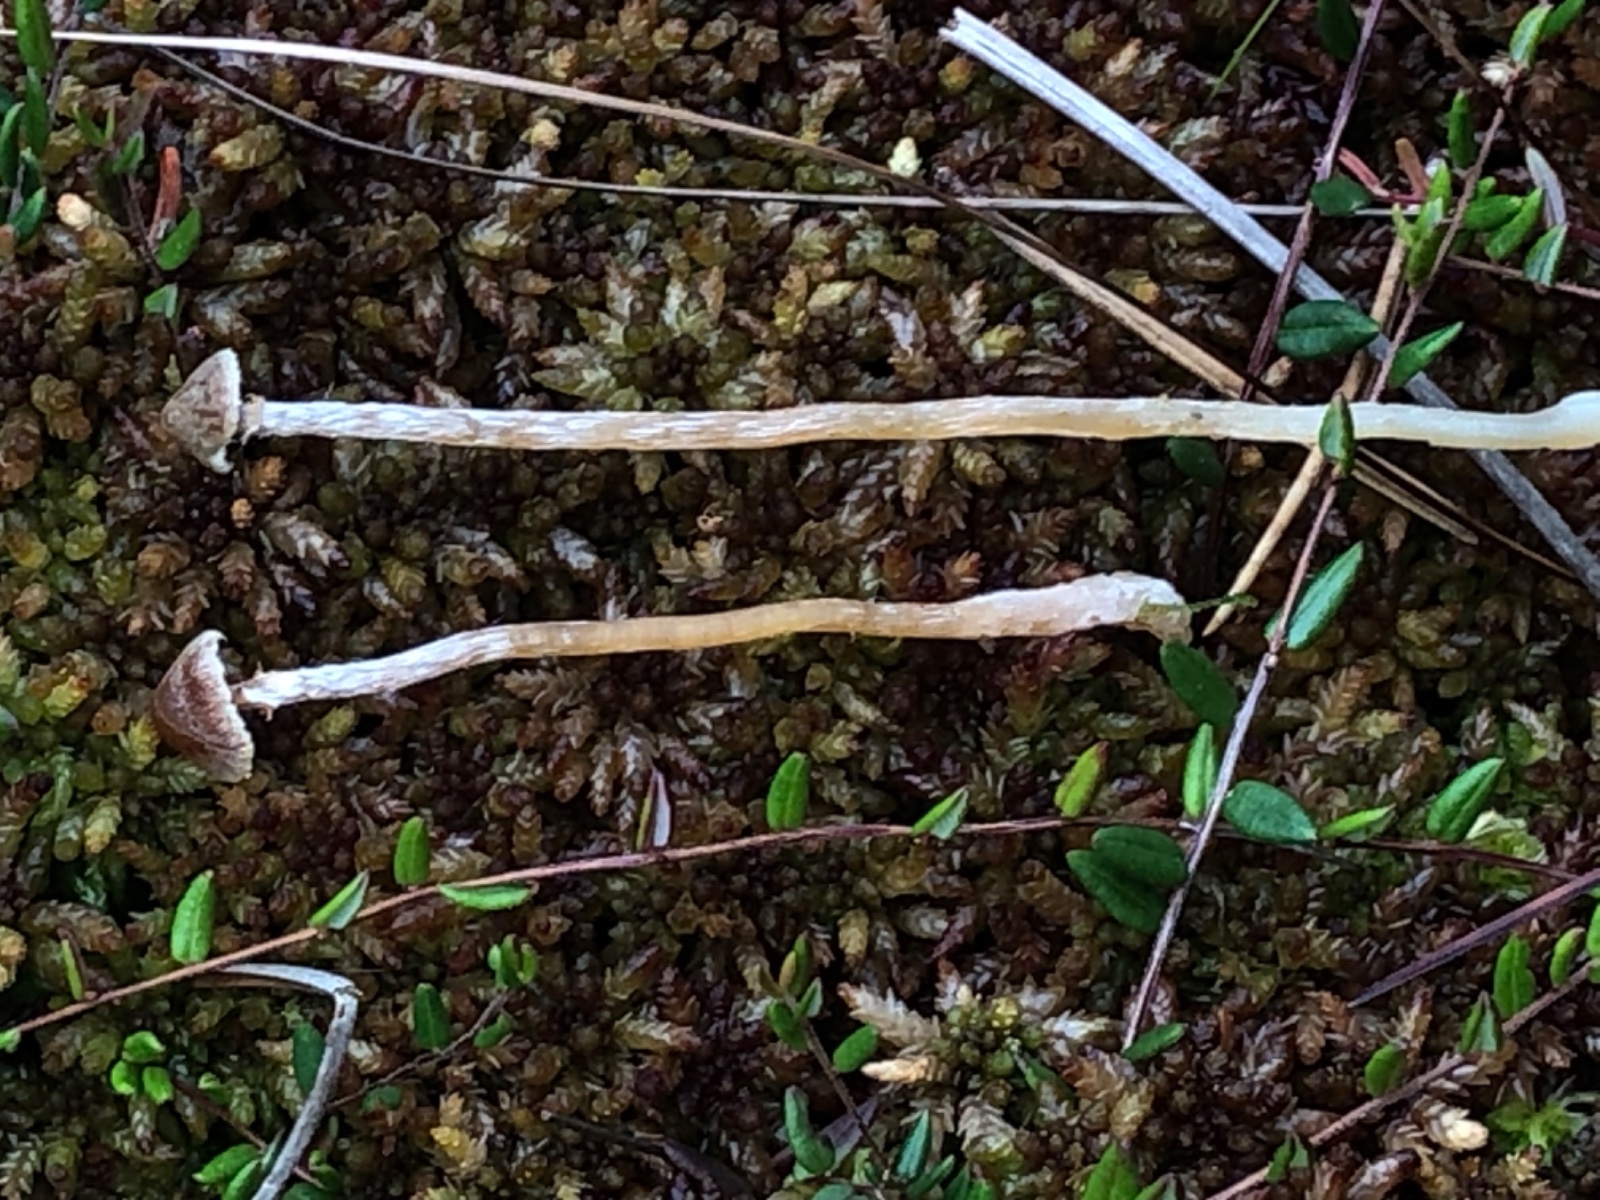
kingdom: Fungi
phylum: Basidiomycota
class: Agaricomycetes
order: Agaricales
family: Cortinariaceae
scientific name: Cortinariaceae
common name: slørhatfamilien
